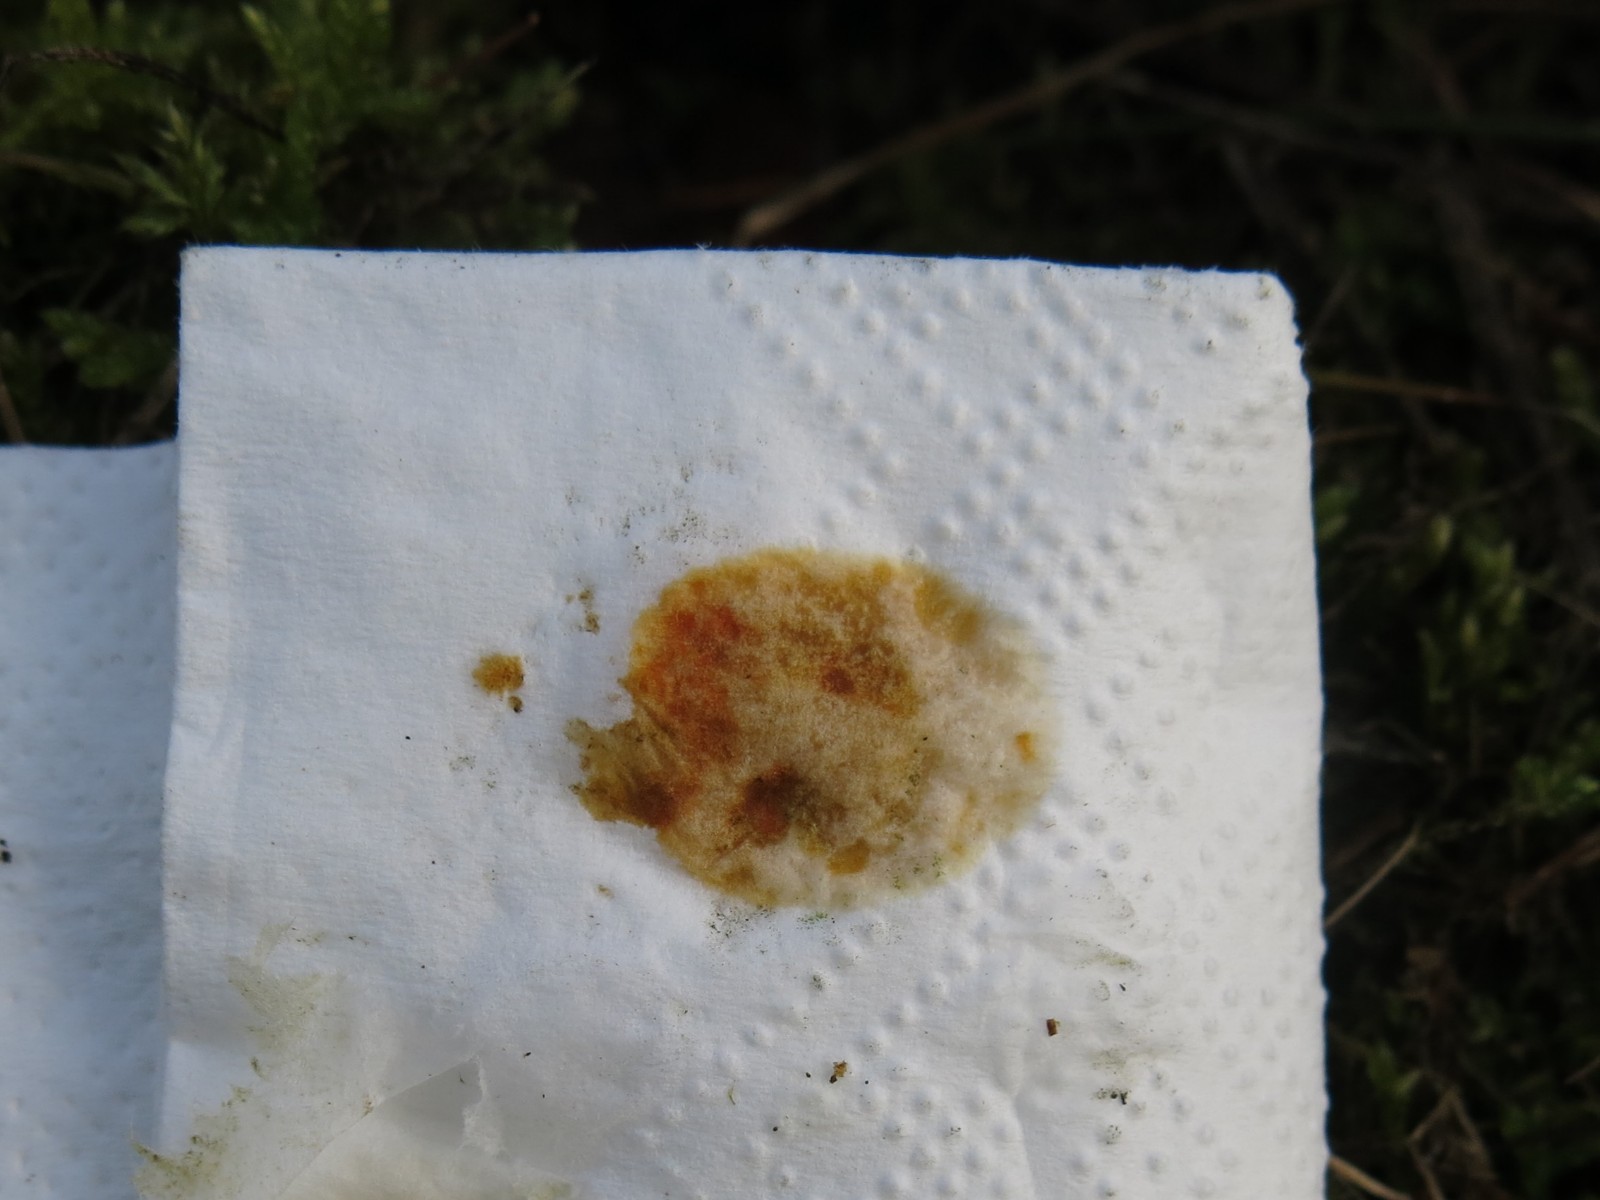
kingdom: Fungi
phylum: Ascomycota
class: Lecanoromycetes
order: Acarosporales
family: Acarosporaceae
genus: Myriospora
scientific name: Myriospora smaragdula
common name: liden småsporelav
